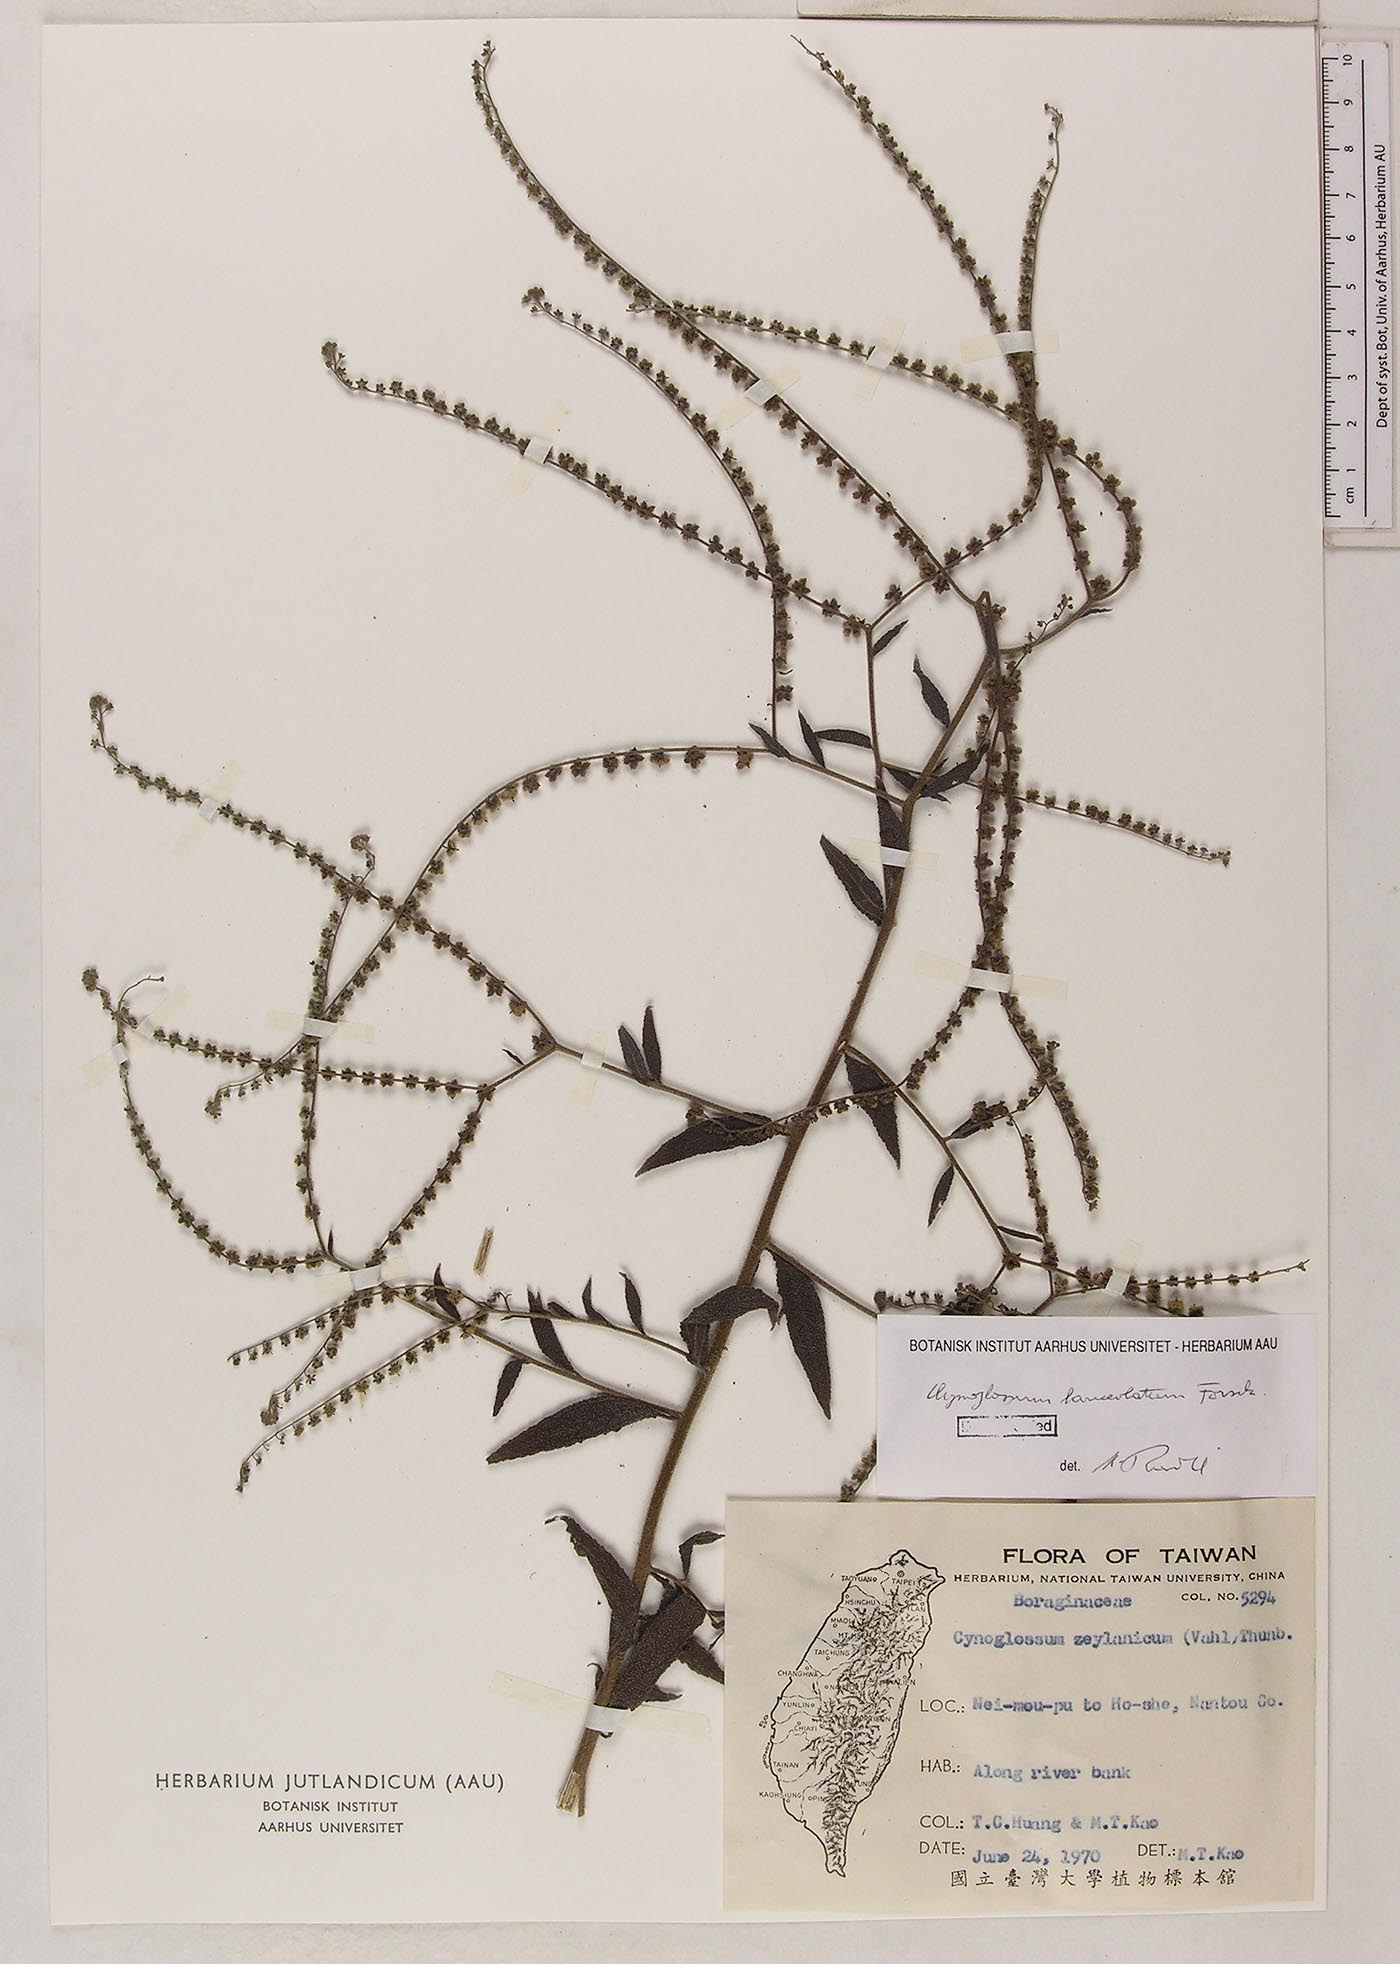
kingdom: Plantae
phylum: Tracheophyta
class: Magnoliopsida
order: Boraginales
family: Boraginaceae
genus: Paracynoglossum
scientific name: Paracynoglossum lanceolatum
